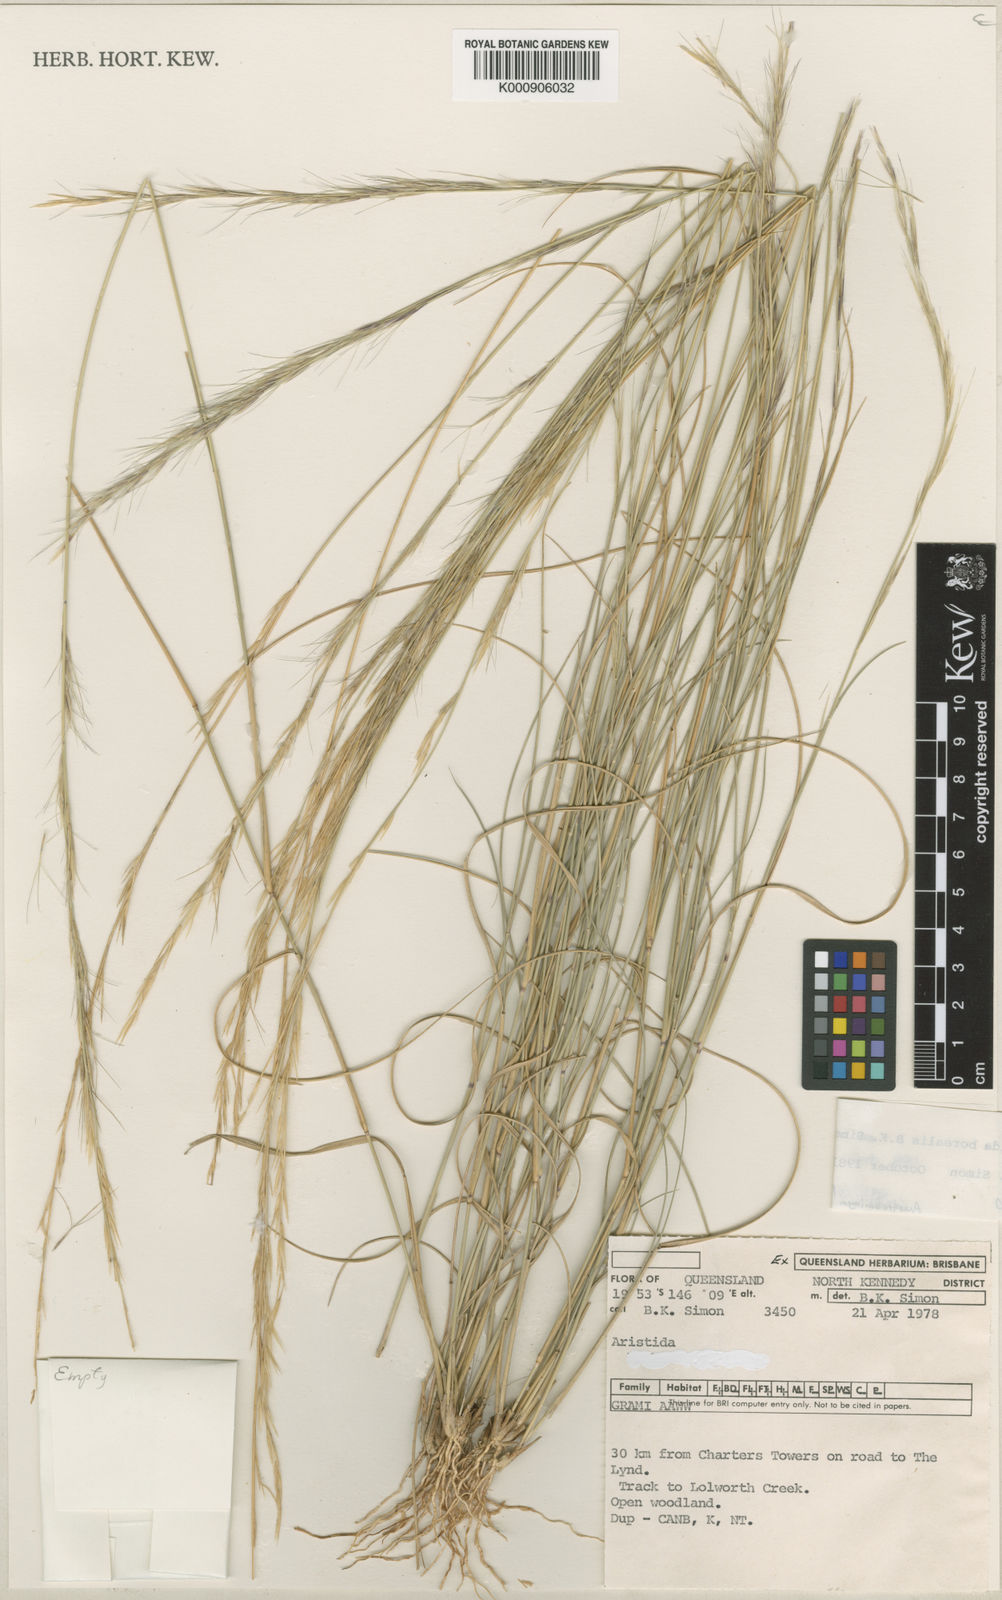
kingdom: Plantae
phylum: Tracheophyta
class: Liliopsida
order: Poales
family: Poaceae
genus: Aristida
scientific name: Aristida sciuroides
